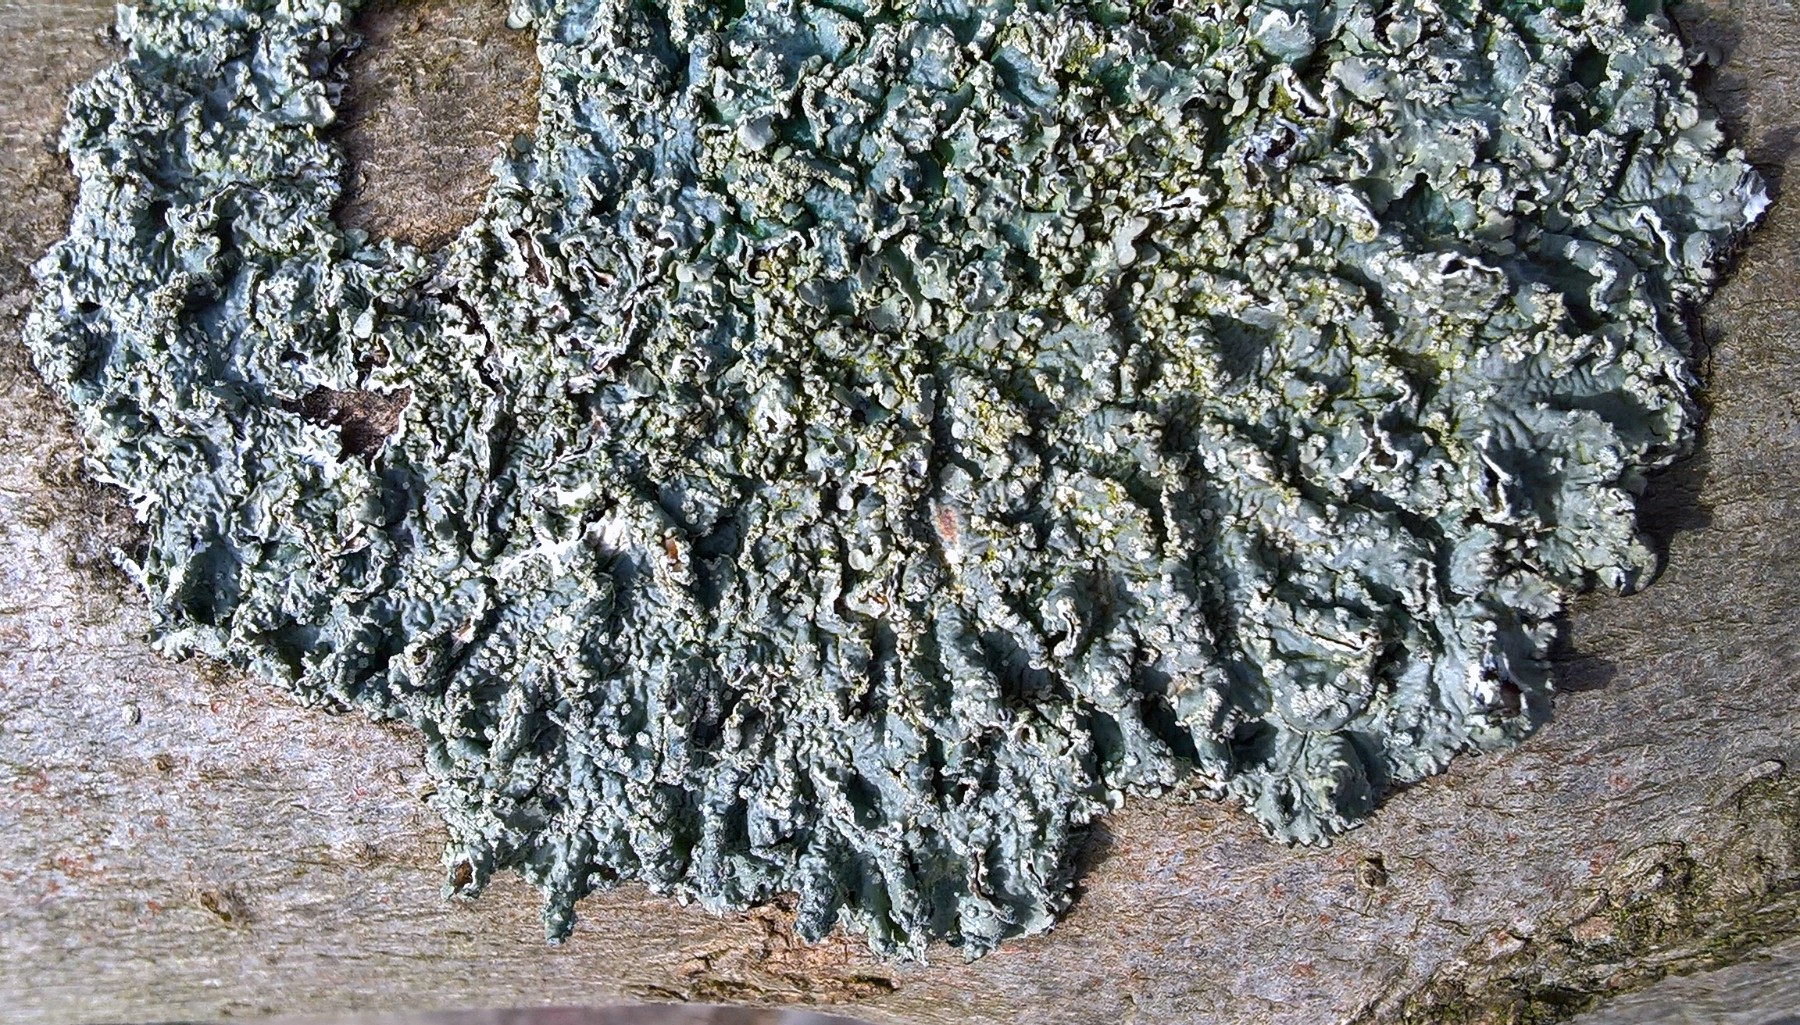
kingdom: Fungi
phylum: Ascomycota
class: Lecanoromycetes
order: Lecanorales
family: Parmeliaceae
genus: Punctelia
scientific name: Punctelia subrudecta
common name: punkt-skållav
